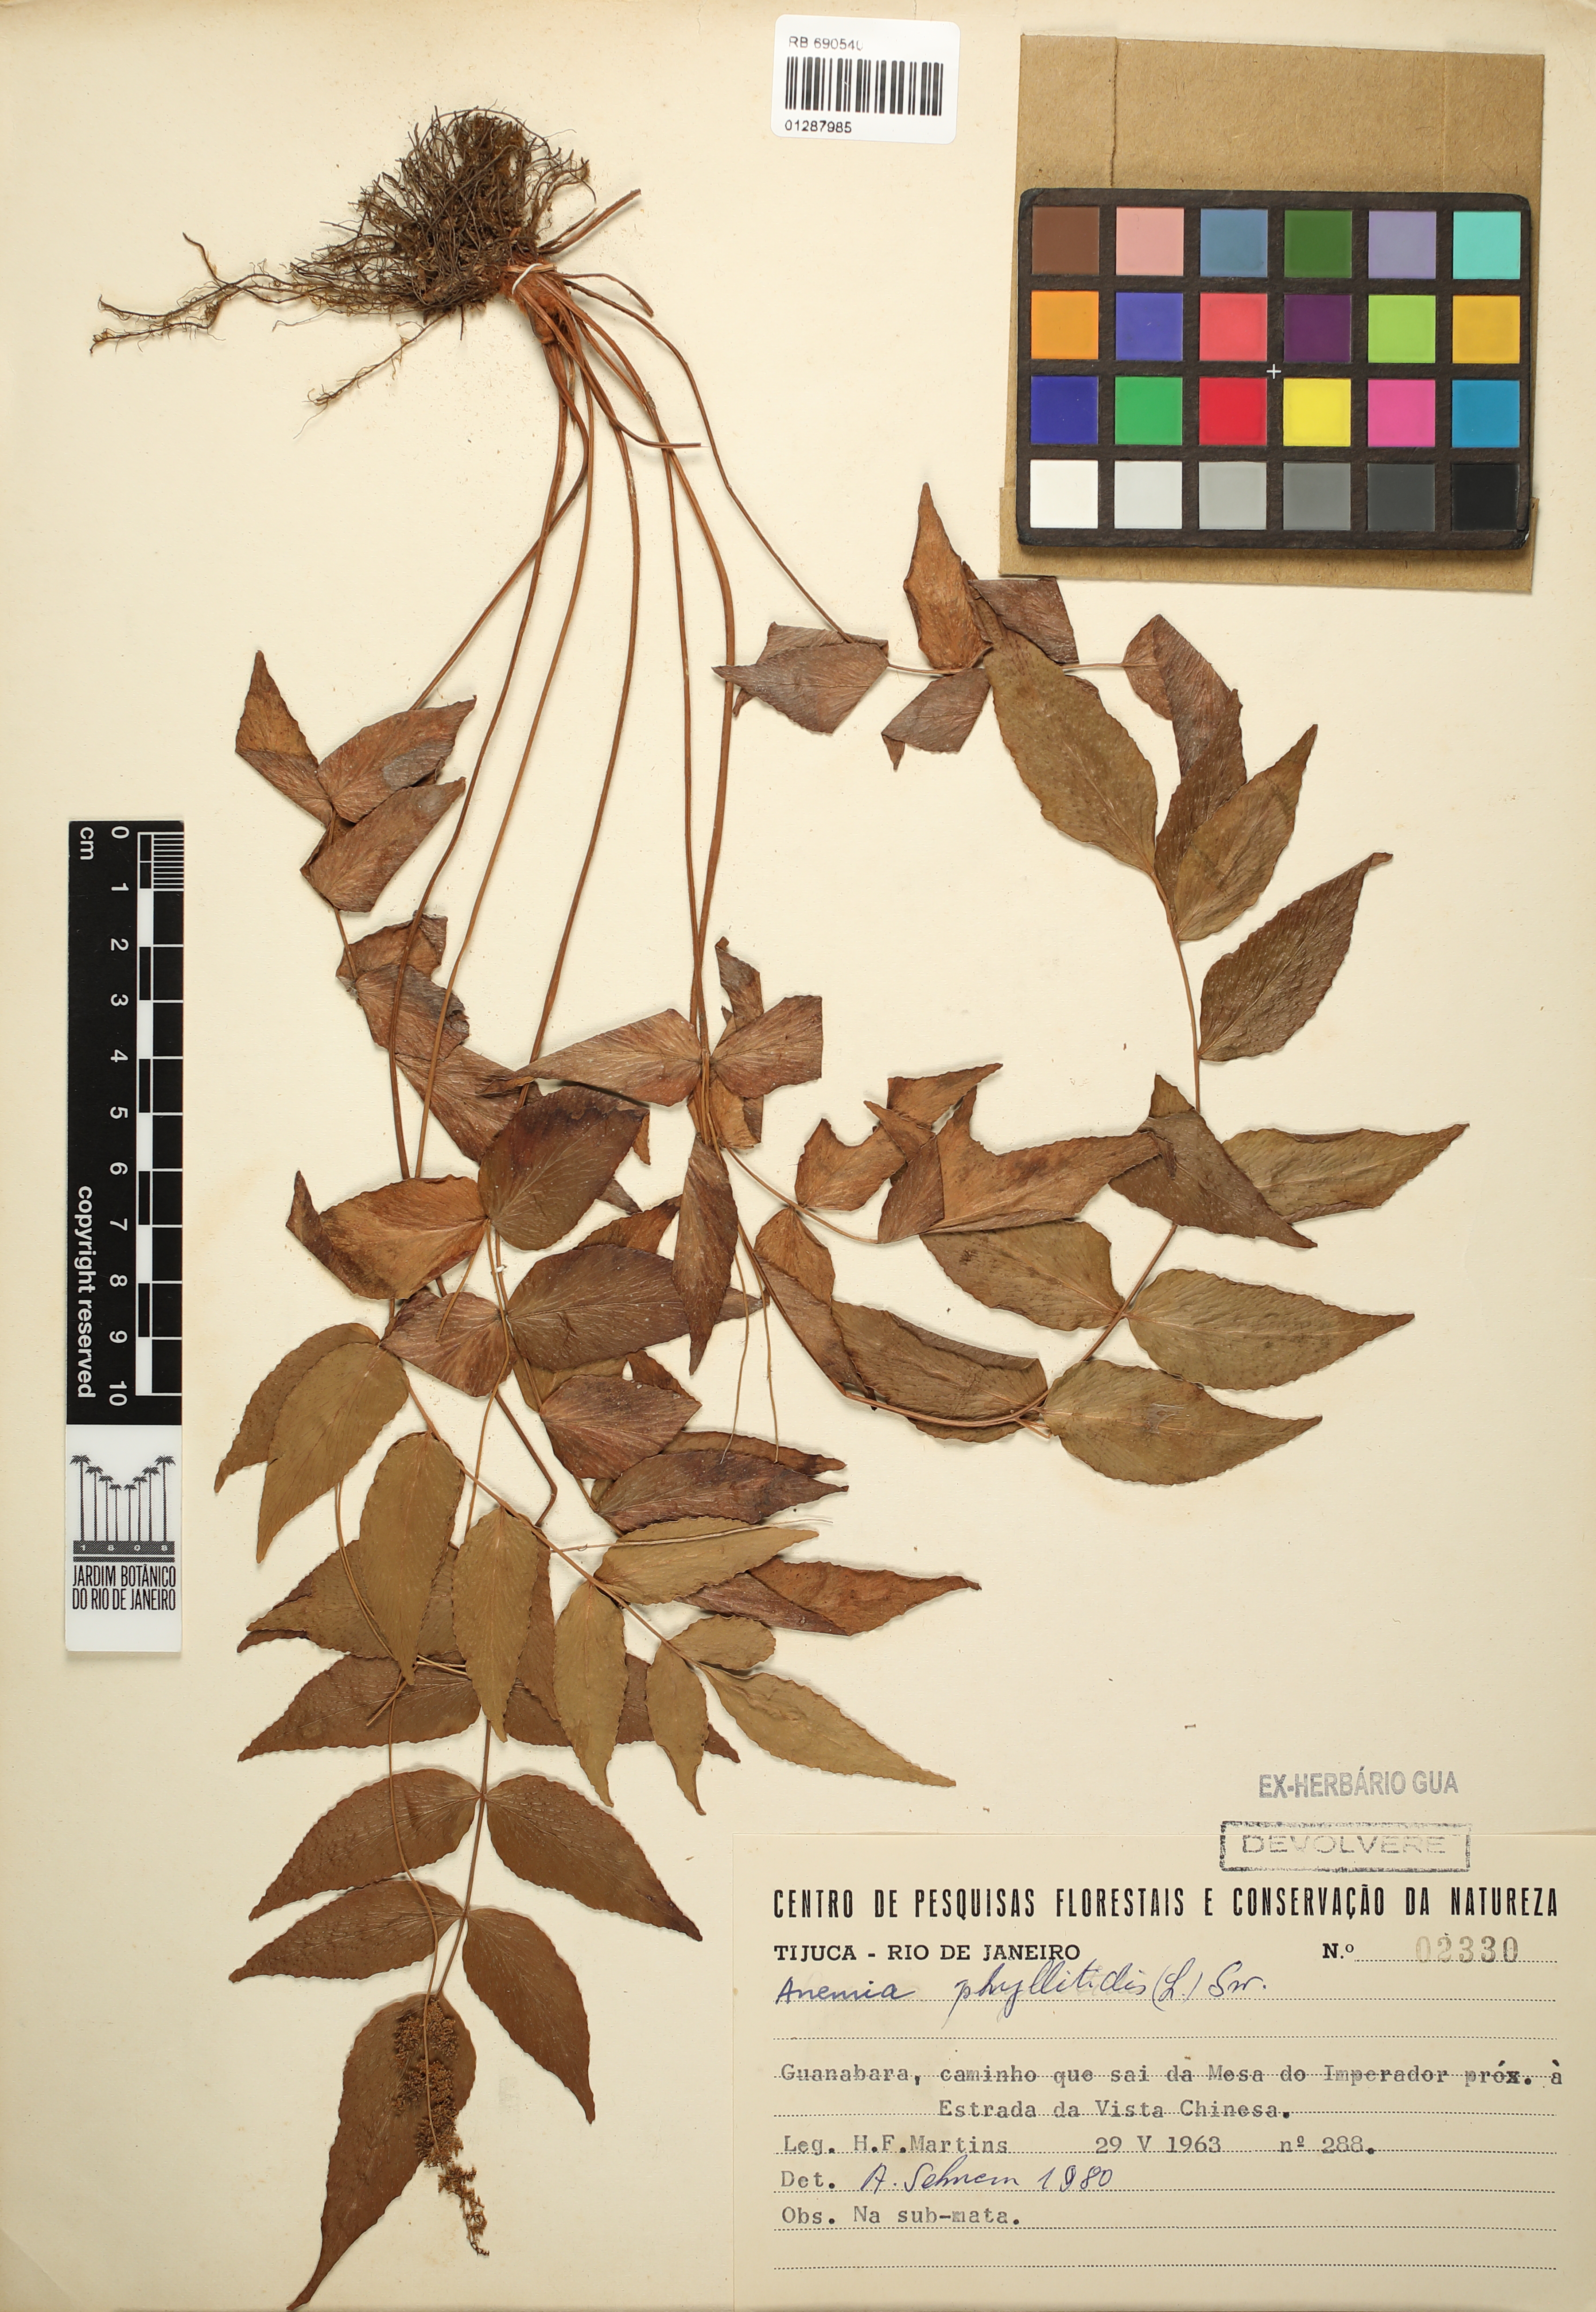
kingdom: Plantae
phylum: Tracheophyta
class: Polypodiopsida
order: Schizaeales
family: Anemiaceae
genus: Anemia
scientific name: Anemia phyllitidis
